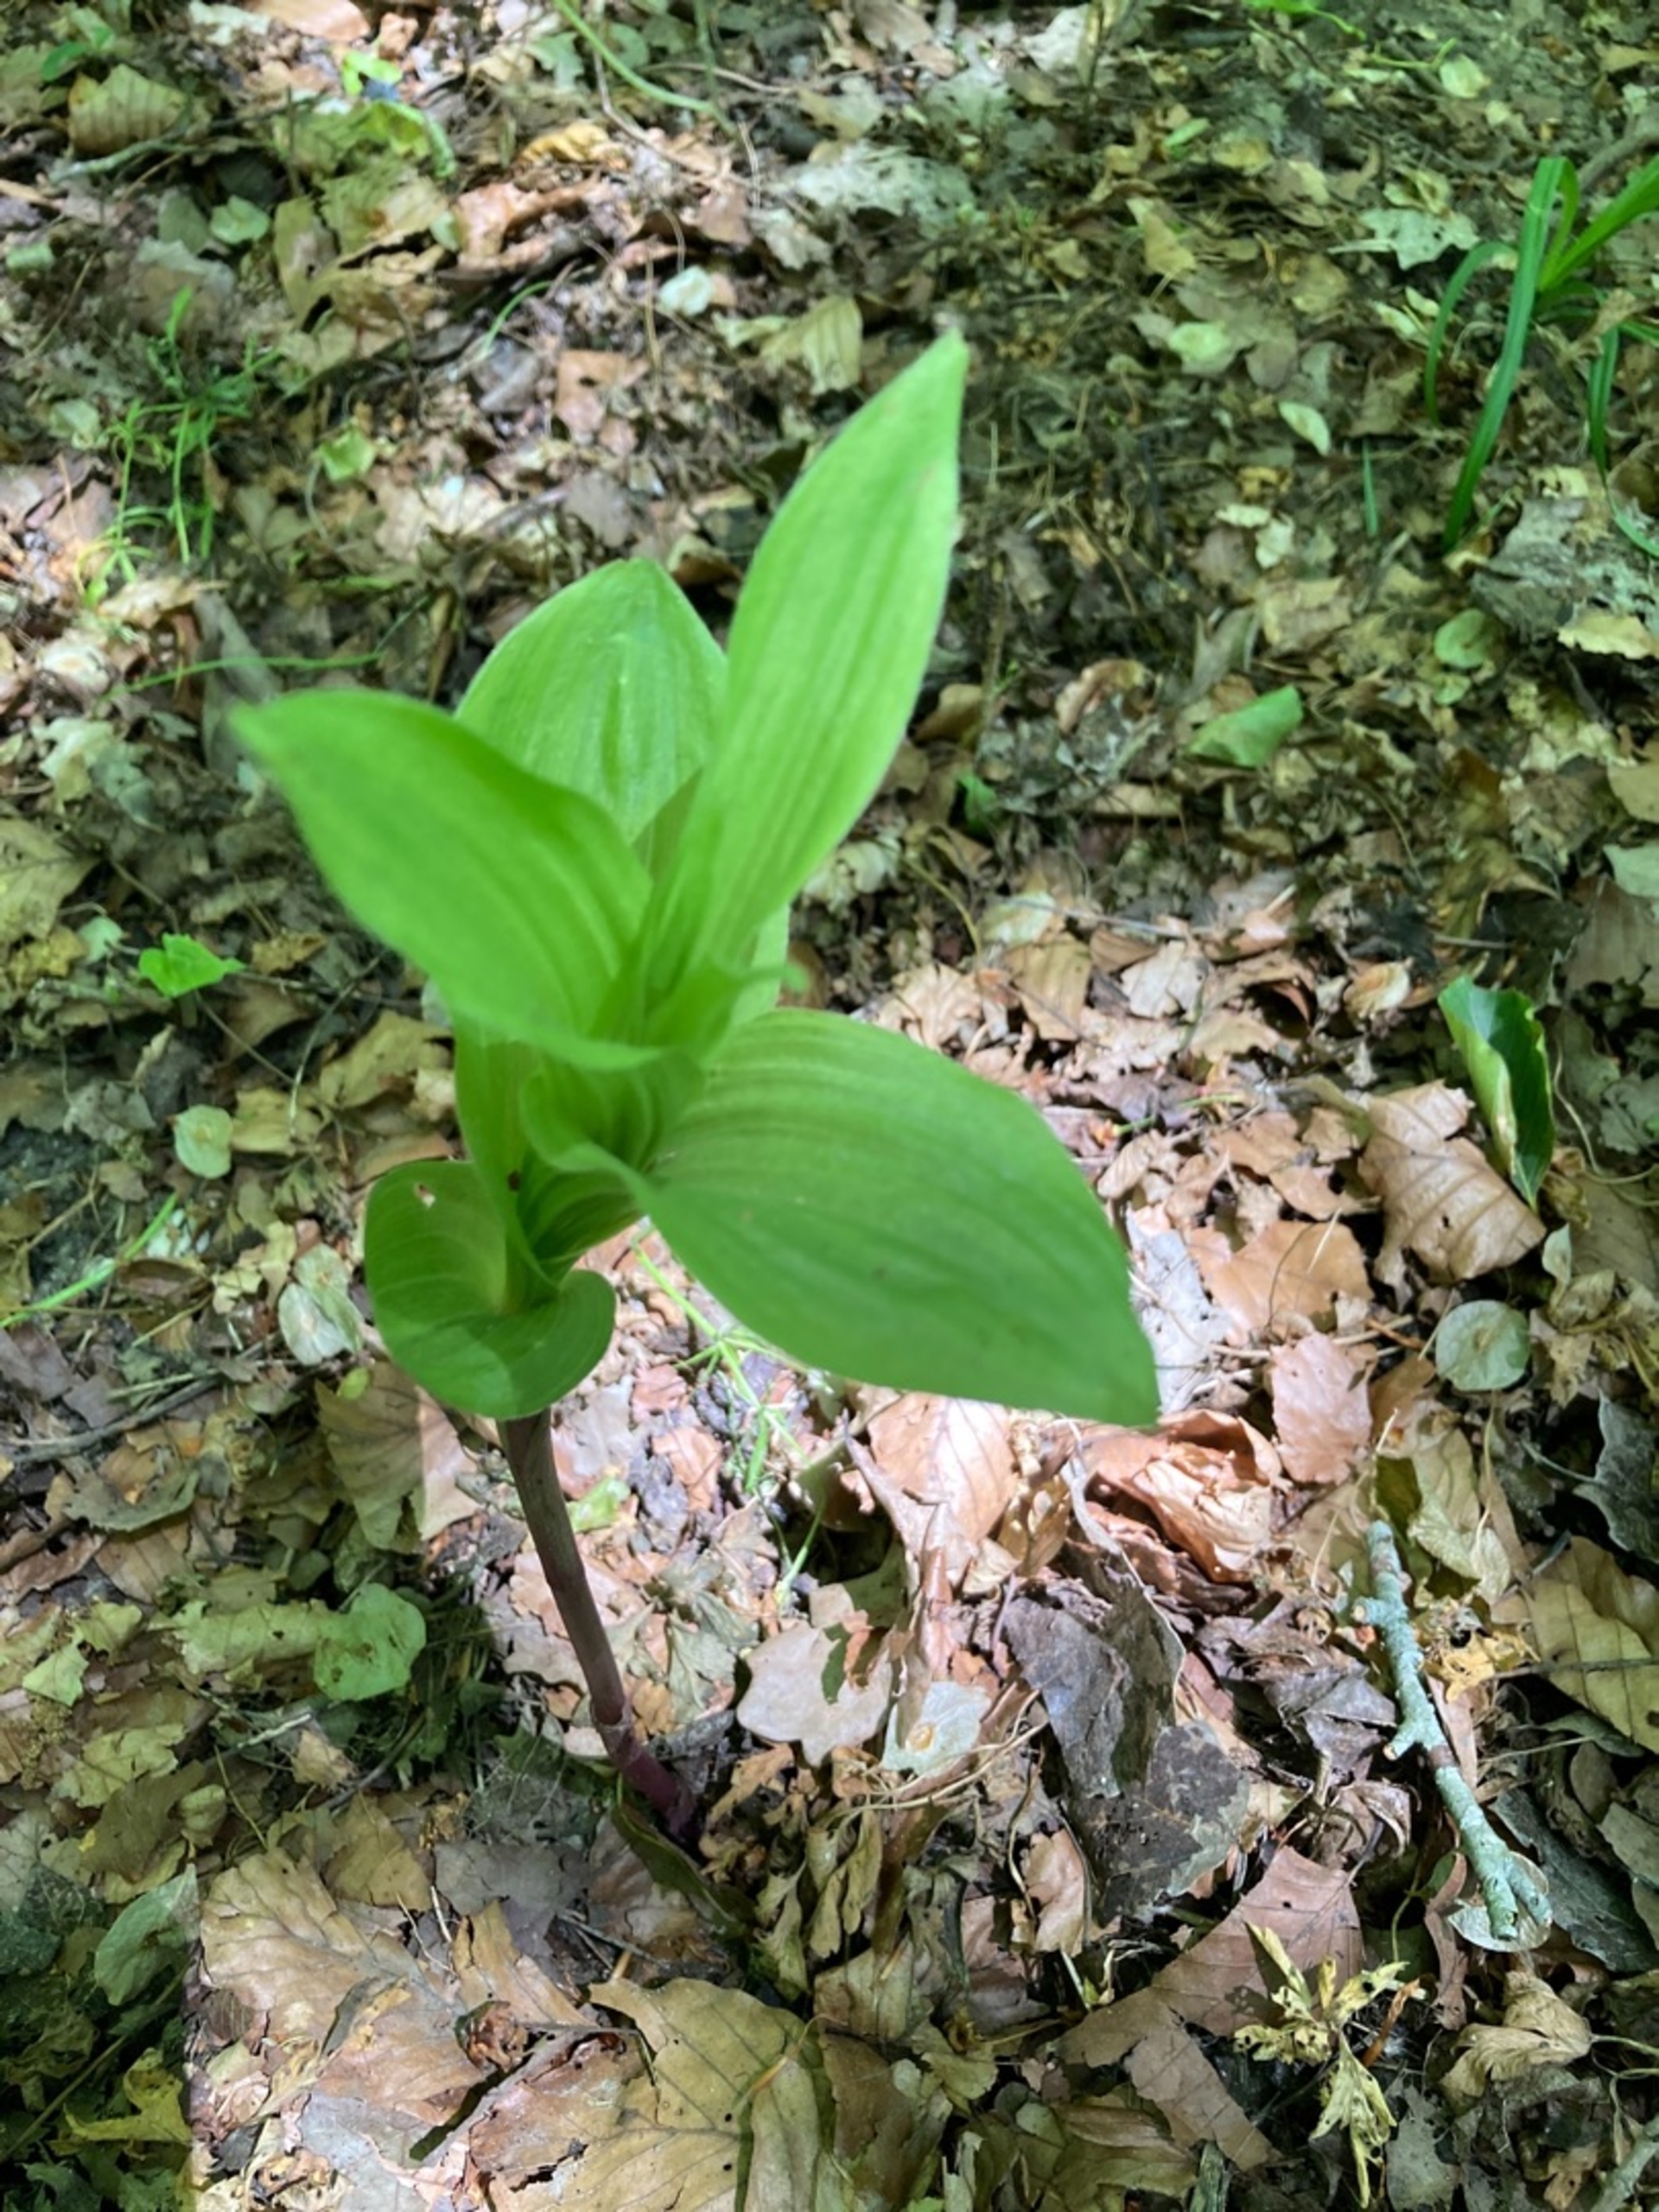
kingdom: Plantae
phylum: Tracheophyta
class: Liliopsida
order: Asparagales
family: Orchidaceae
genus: Epipactis
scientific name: Epipactis helleborine
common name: Skov-hullæbe
